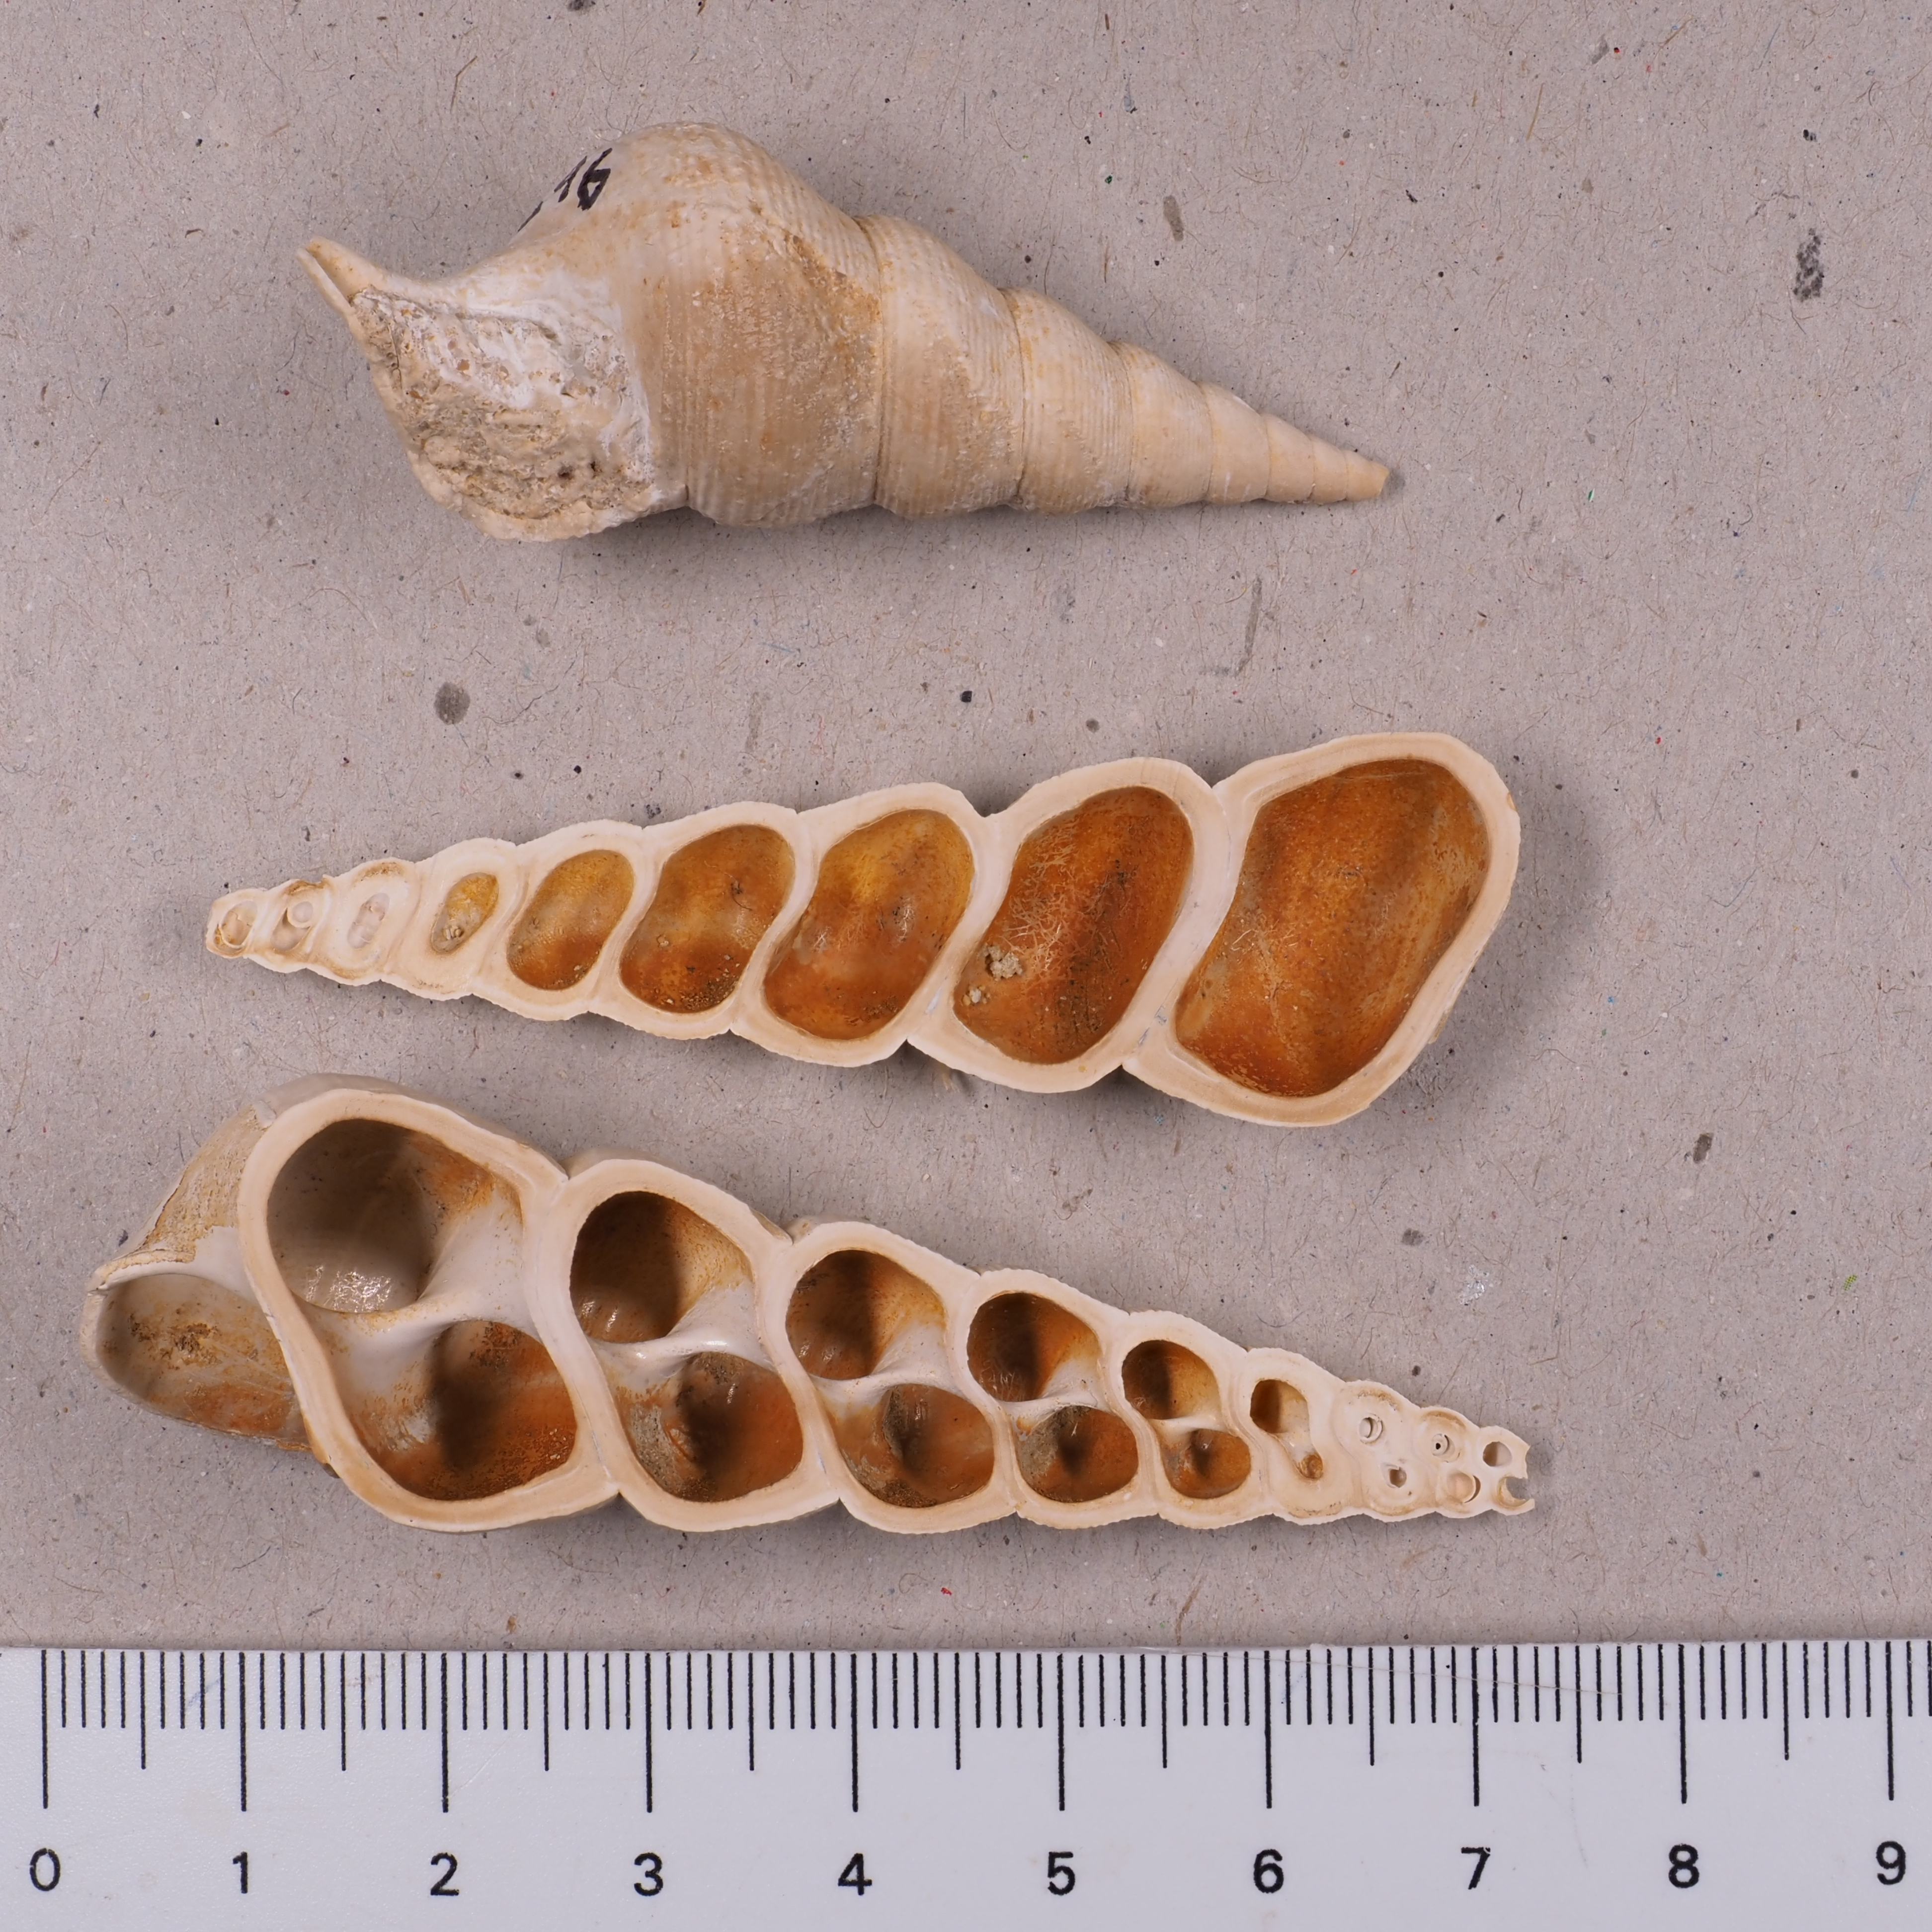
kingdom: Animalia
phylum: Mollusca
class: Gastropoda
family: Pseudomelaniidae
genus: Bourgetia
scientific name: Bourgetia Turritella deshayesea
